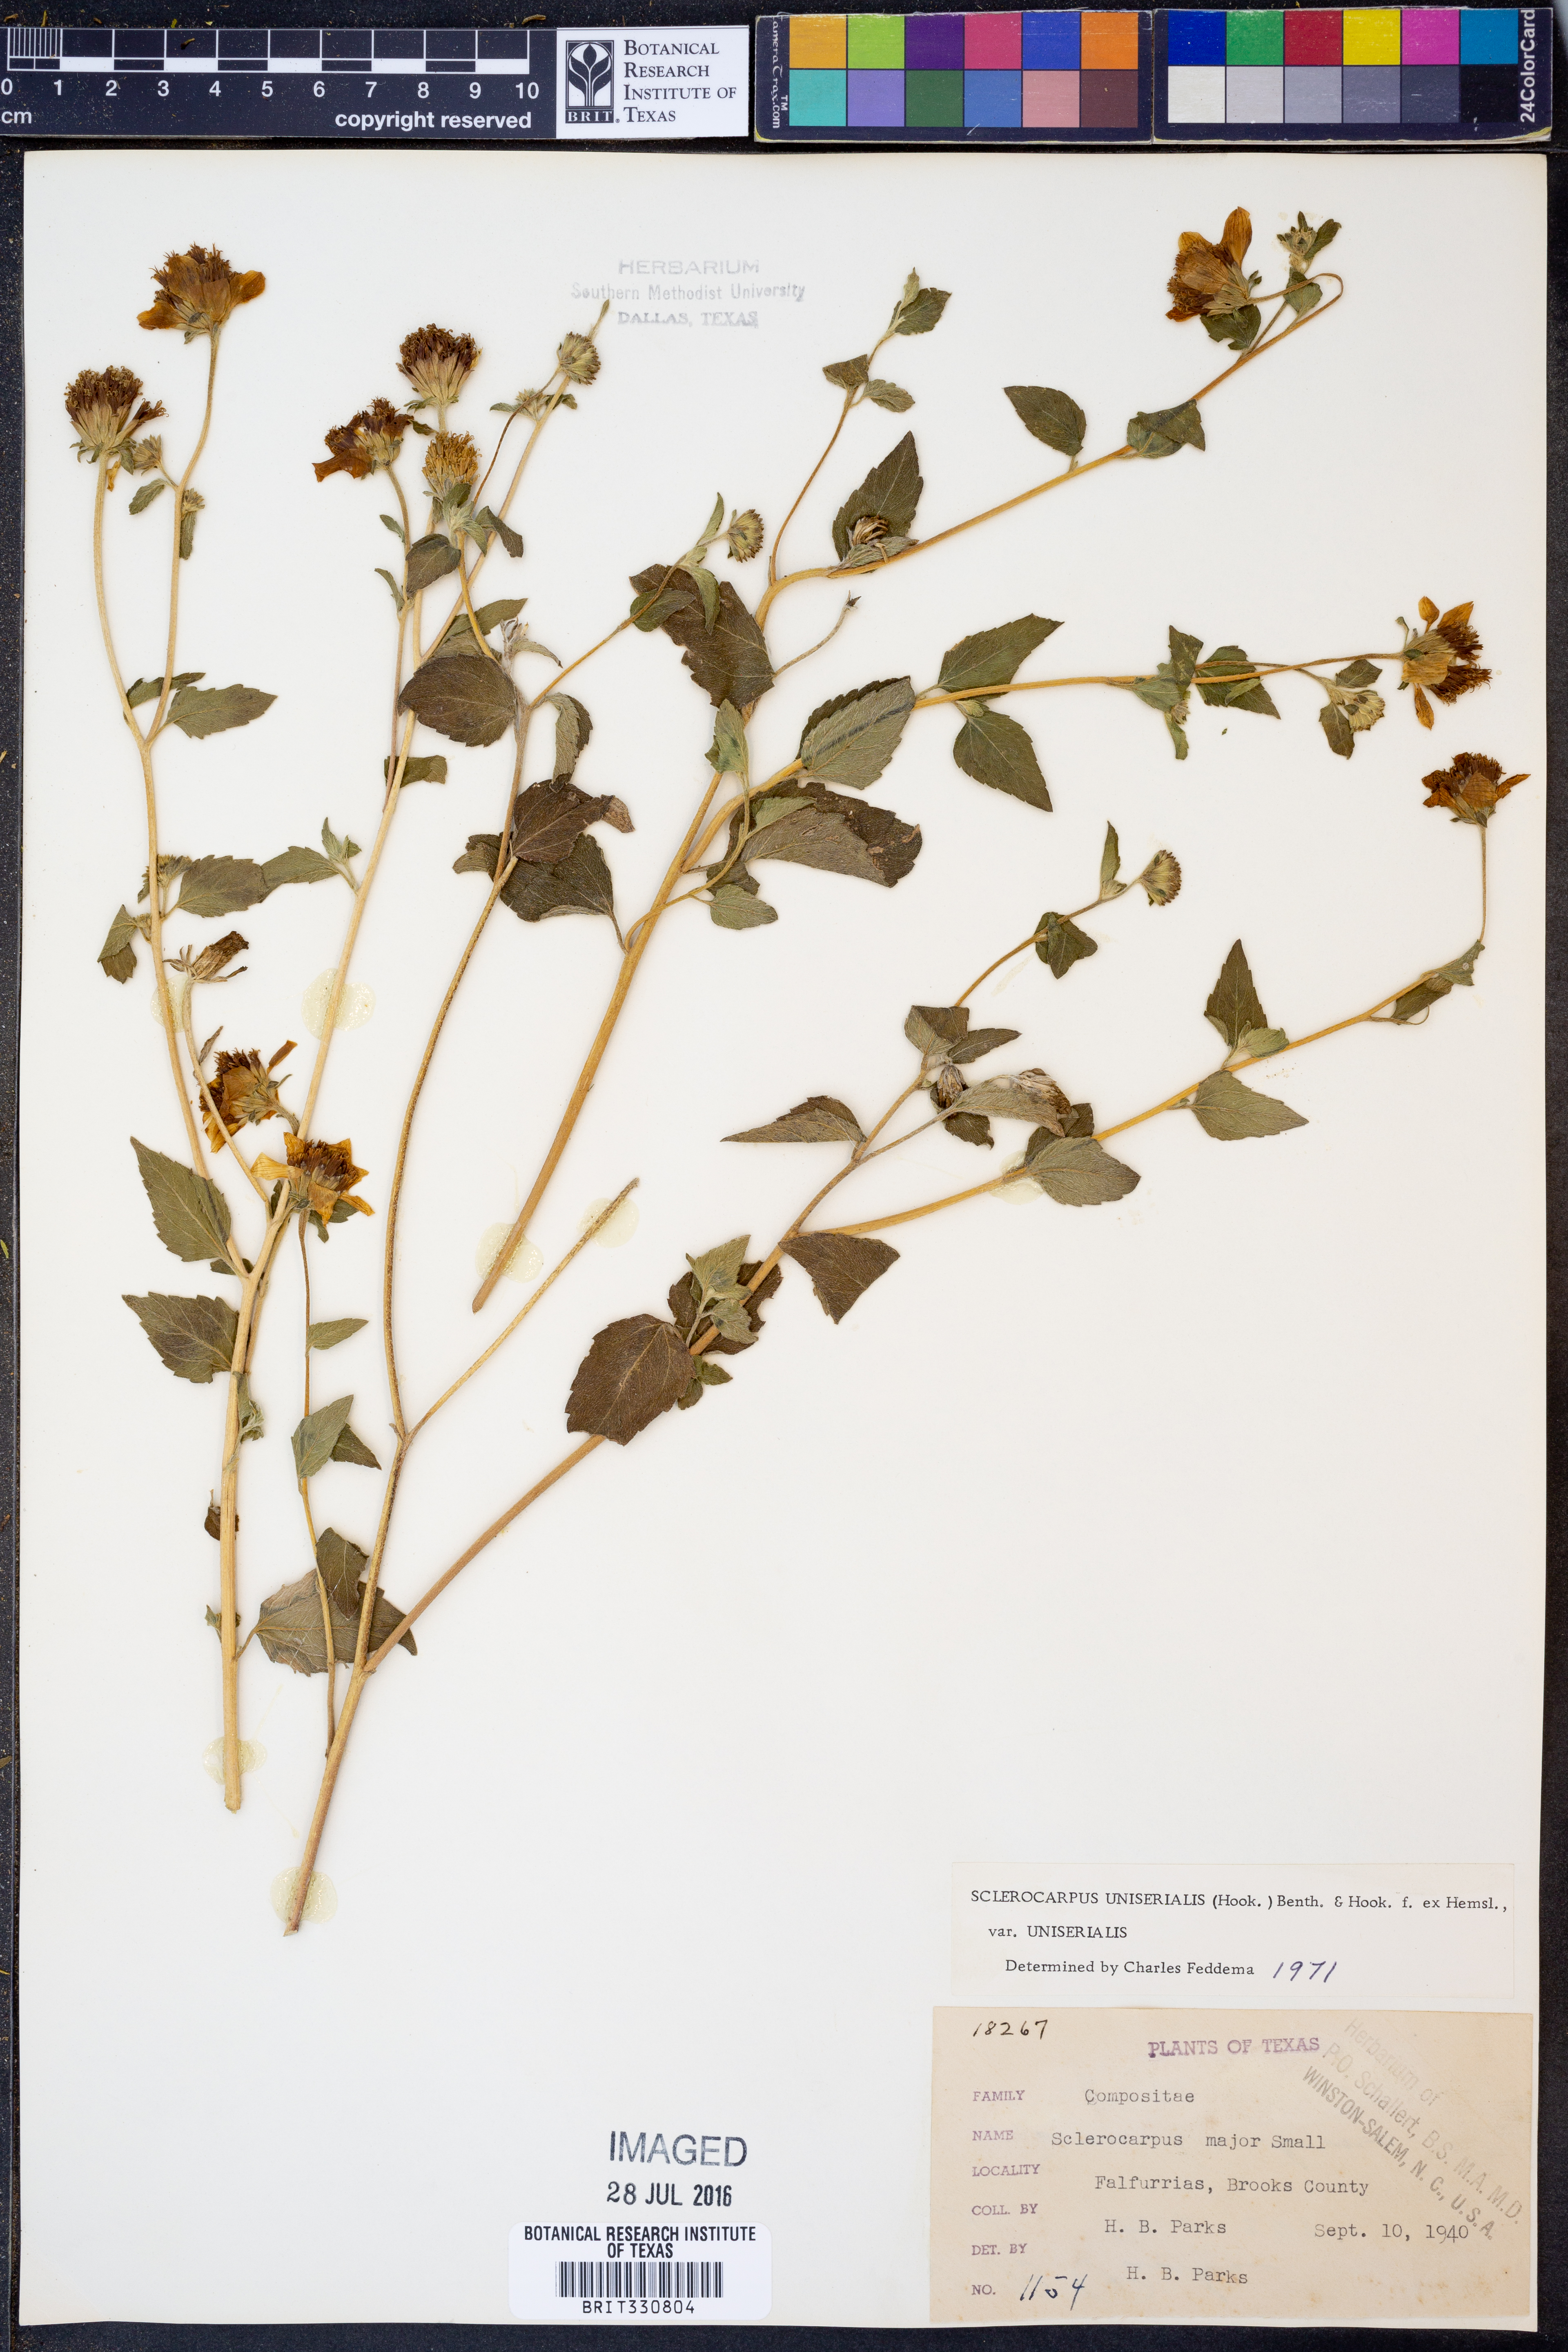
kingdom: Plantae
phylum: Tracheophyta
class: Magnoliopsida
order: Asterales
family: Asteraceae
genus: Sclerocarpus
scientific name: Sclerocarpus uniserialis
